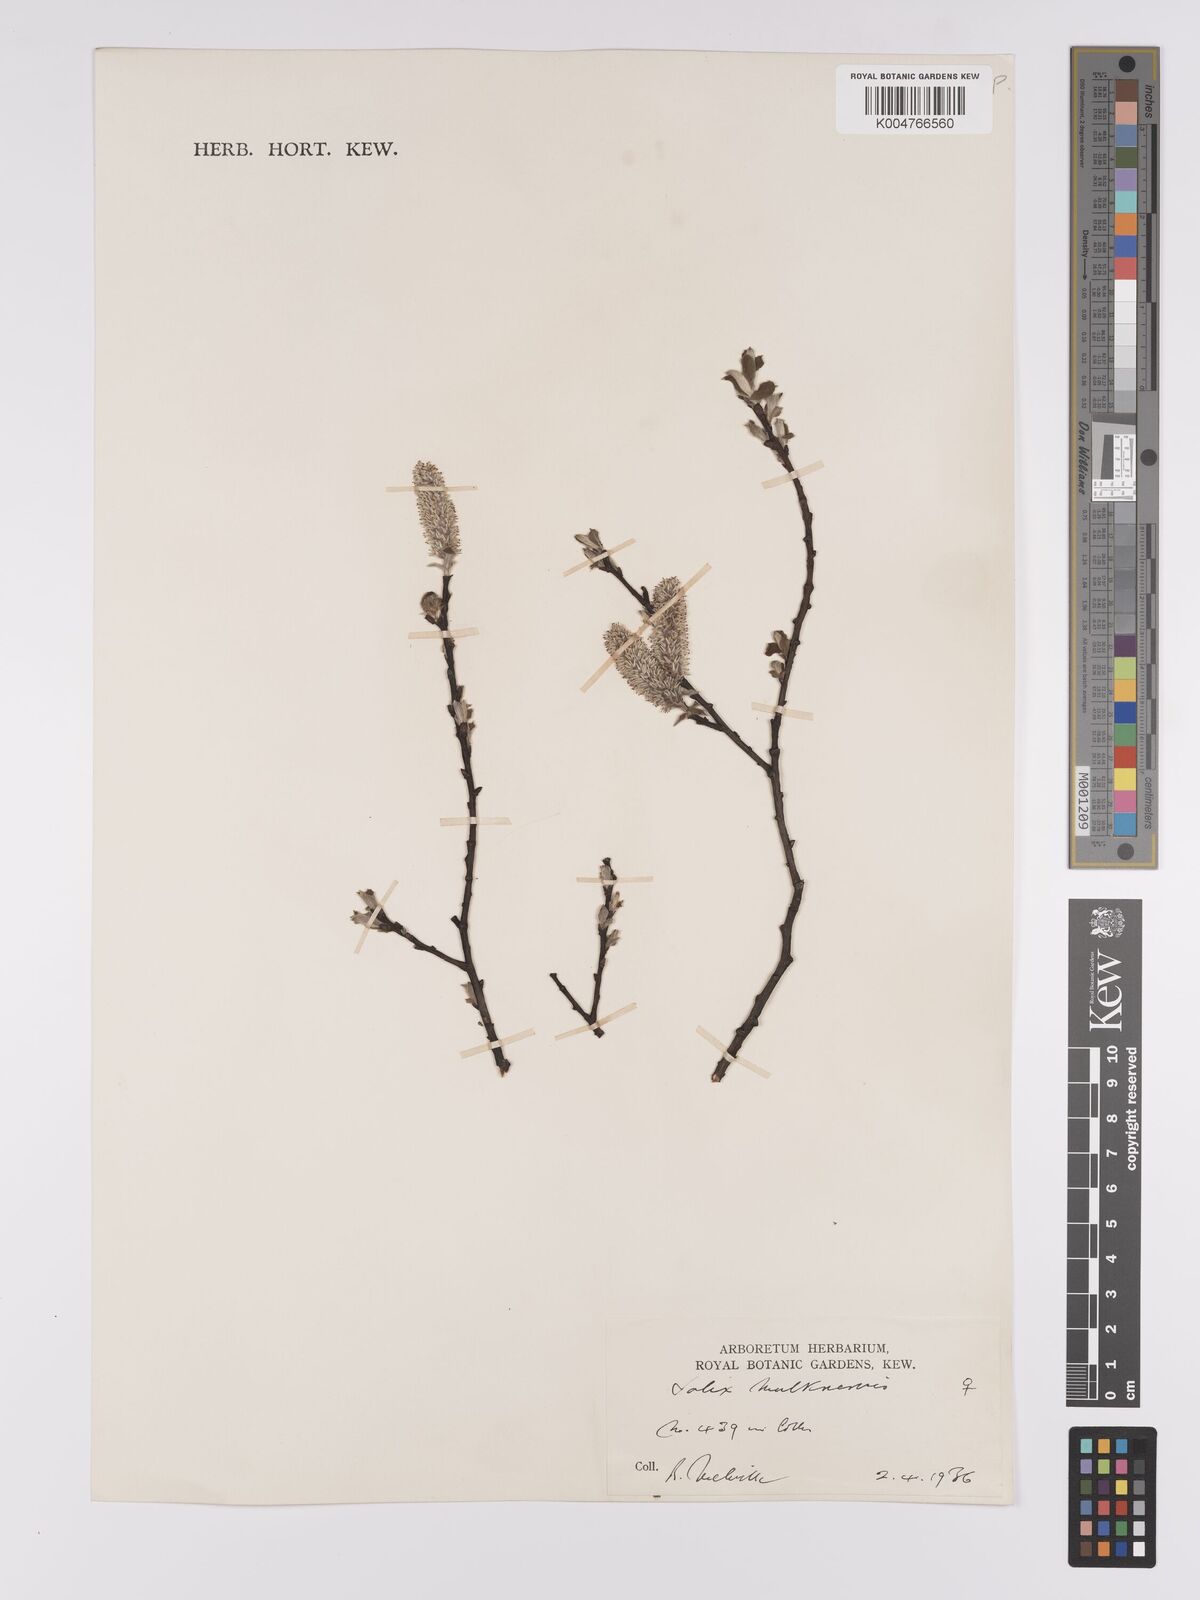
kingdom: Plantae
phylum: Tracheophyta
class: Magnoliopsida
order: Malpighiales
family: Salicaceae
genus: Salix
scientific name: Salix
